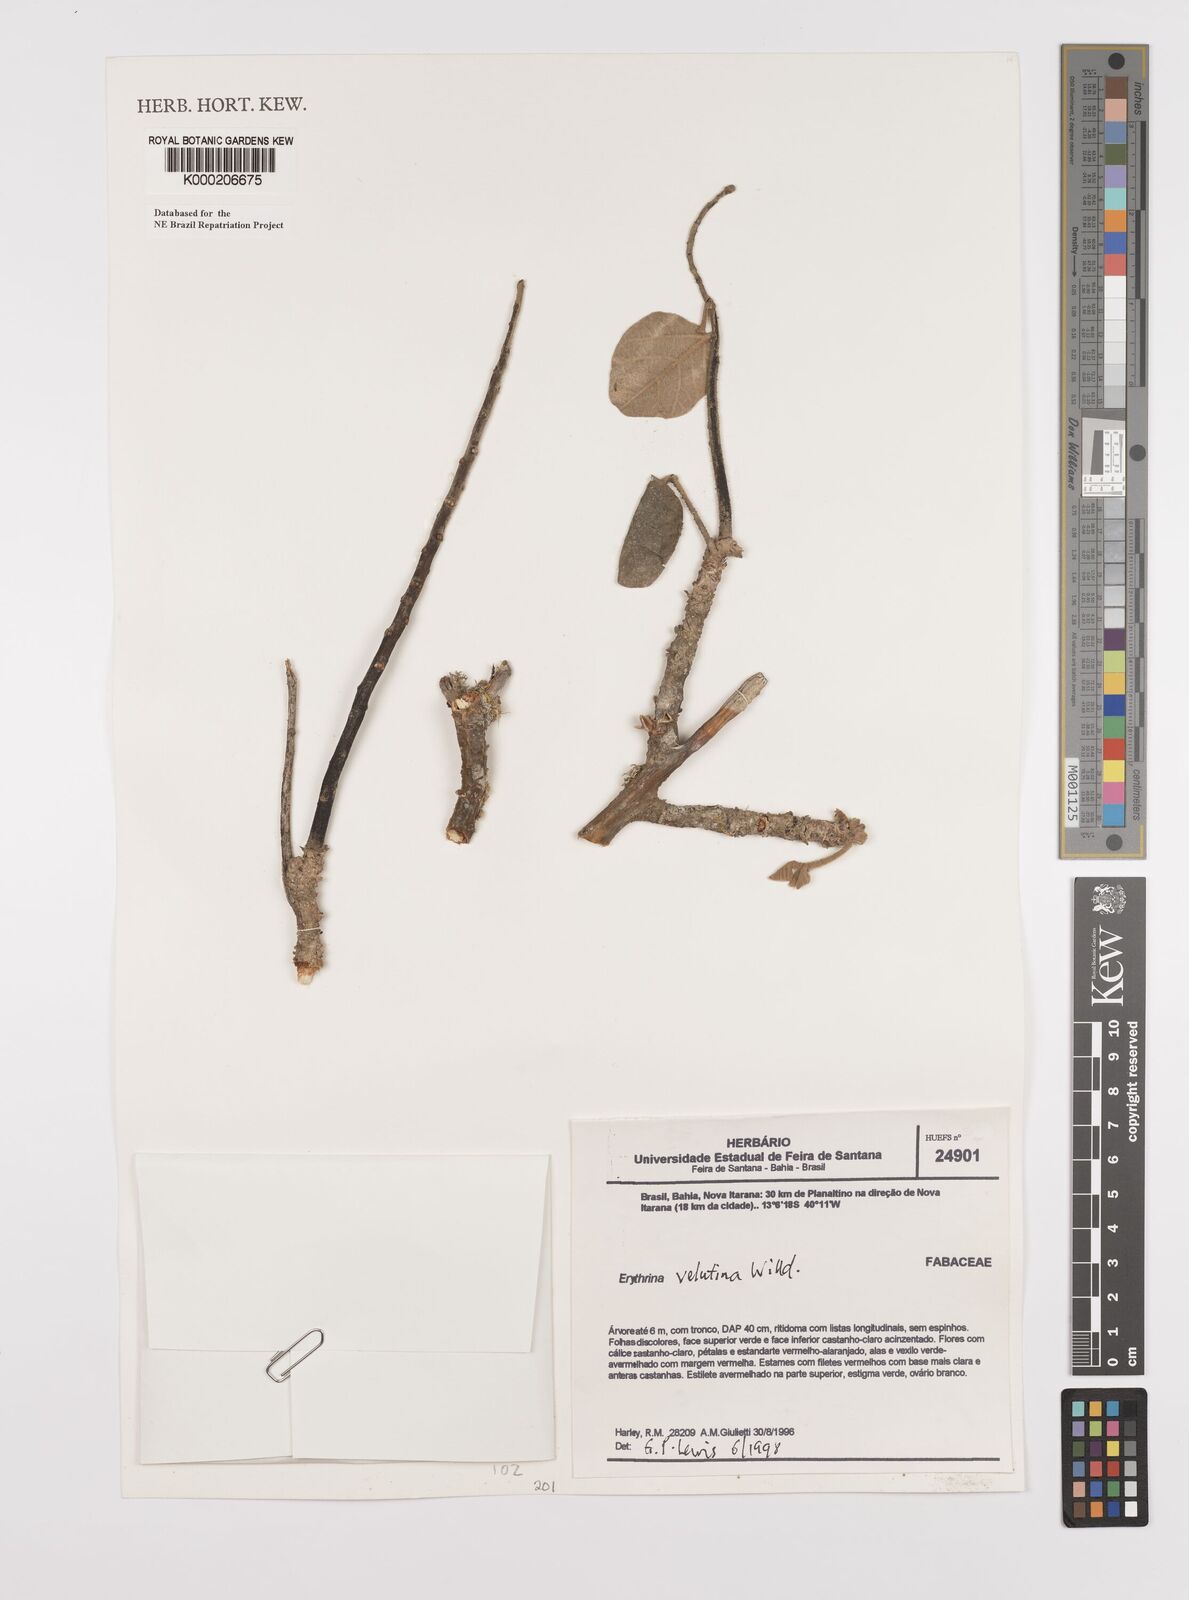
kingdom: Plantae
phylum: Tracheophyta
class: Magnoliopsida
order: Fabales
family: Fabaceae
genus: Erythrina
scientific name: Erythrina velutina
